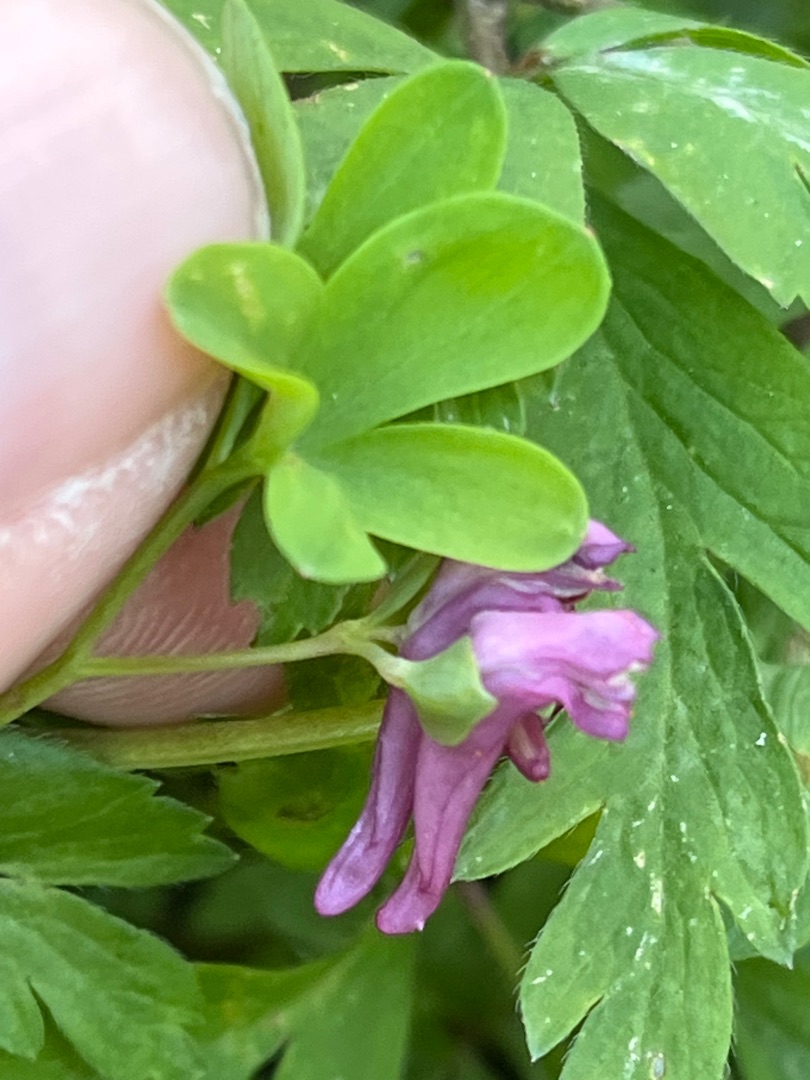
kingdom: Plantae
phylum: Tracheophyta
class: Magnoliopsida
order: Ranunculales
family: Papaveraceae
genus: Corydalis
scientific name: Corydalis intermedia
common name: Liden lærkespore
